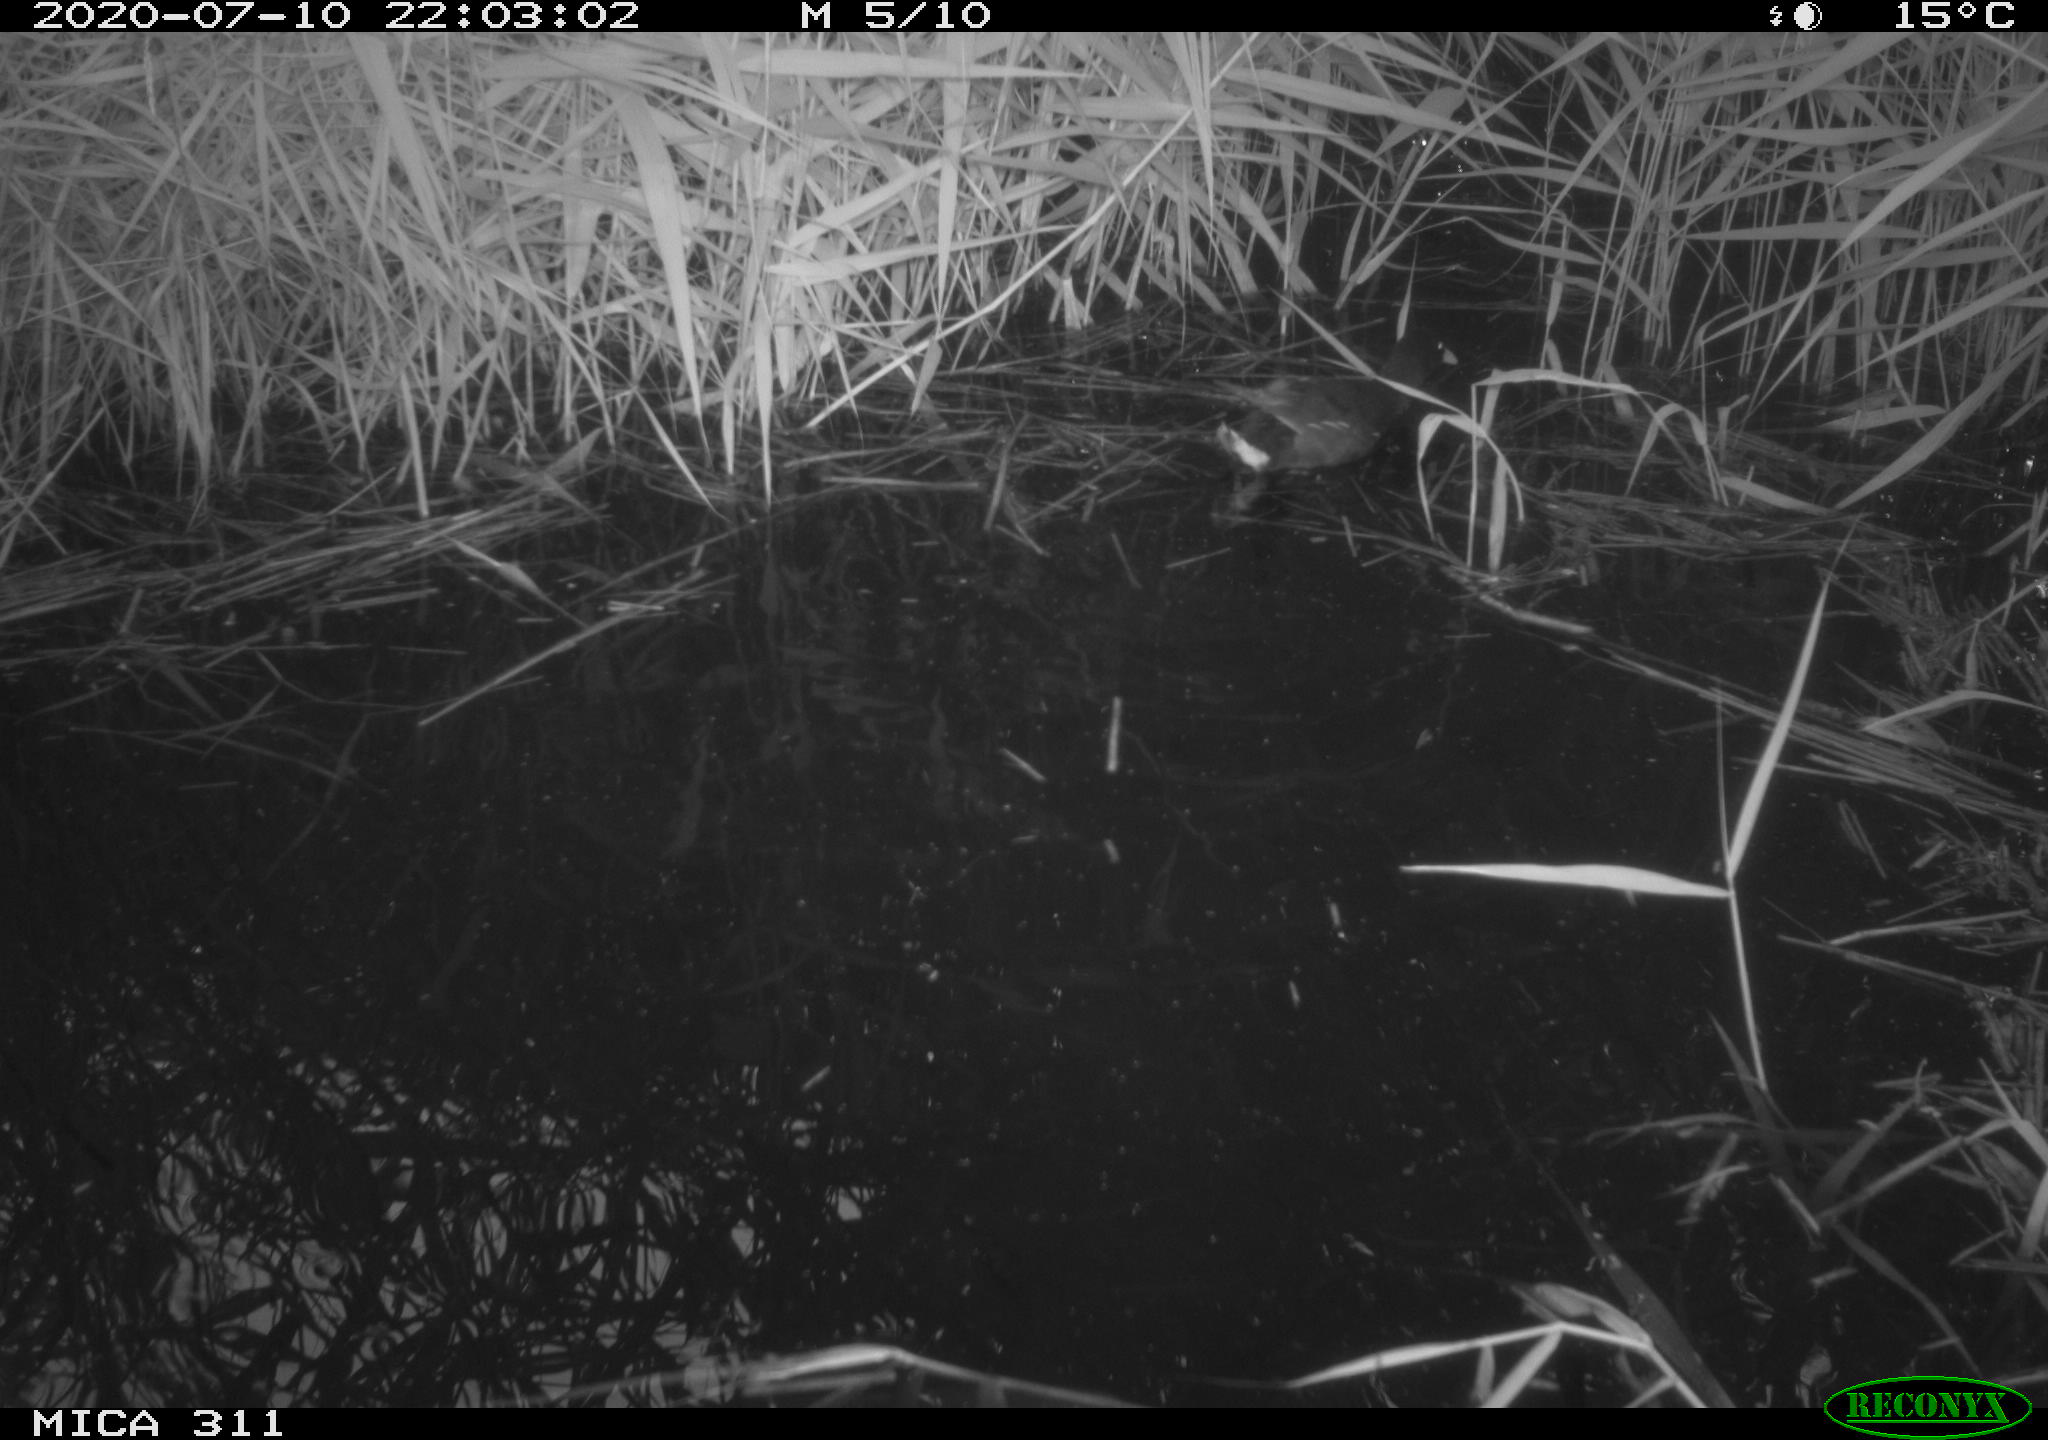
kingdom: Animalia
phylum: Chordata
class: Aves
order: Anseriformes
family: Anatidae
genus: Anas
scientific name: Anas platyrhynchos
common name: Mallard
